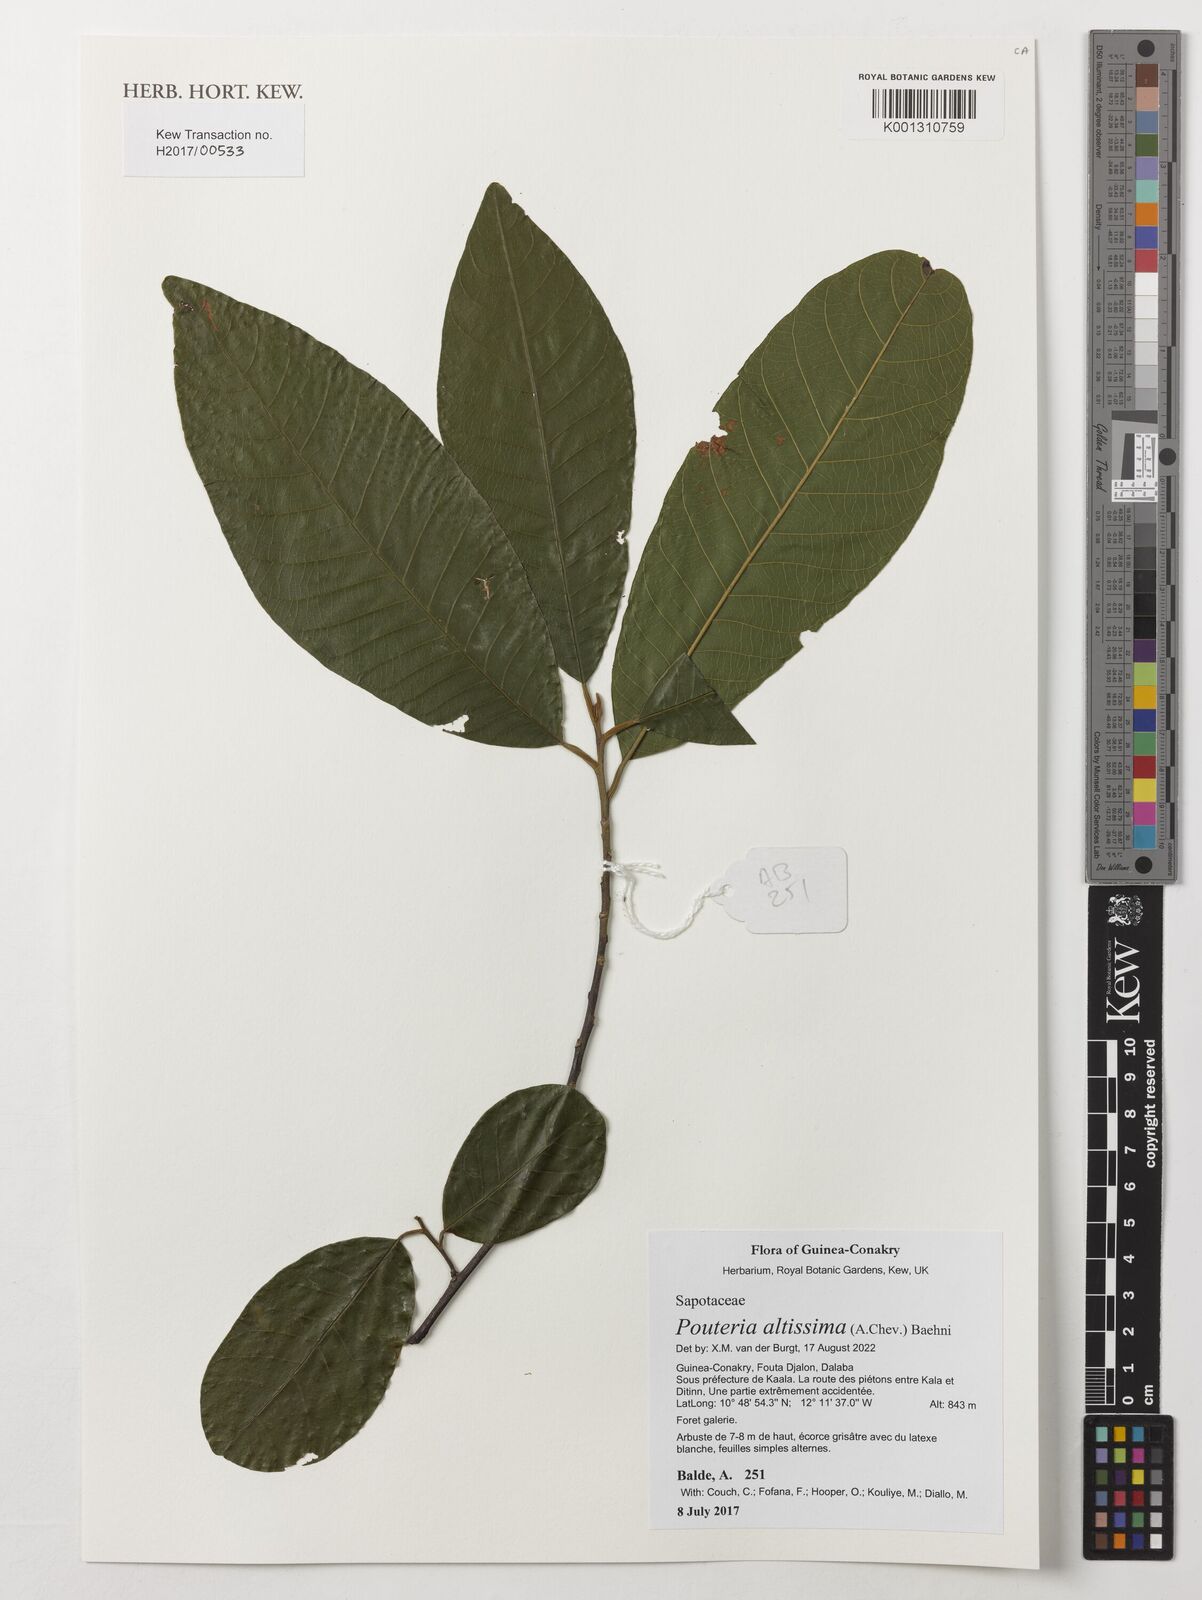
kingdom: Plantae
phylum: Tracheophyta
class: Magnoliopsida
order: Ericales
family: Sapotaceae
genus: Aningeria
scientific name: Aningeria altissima
